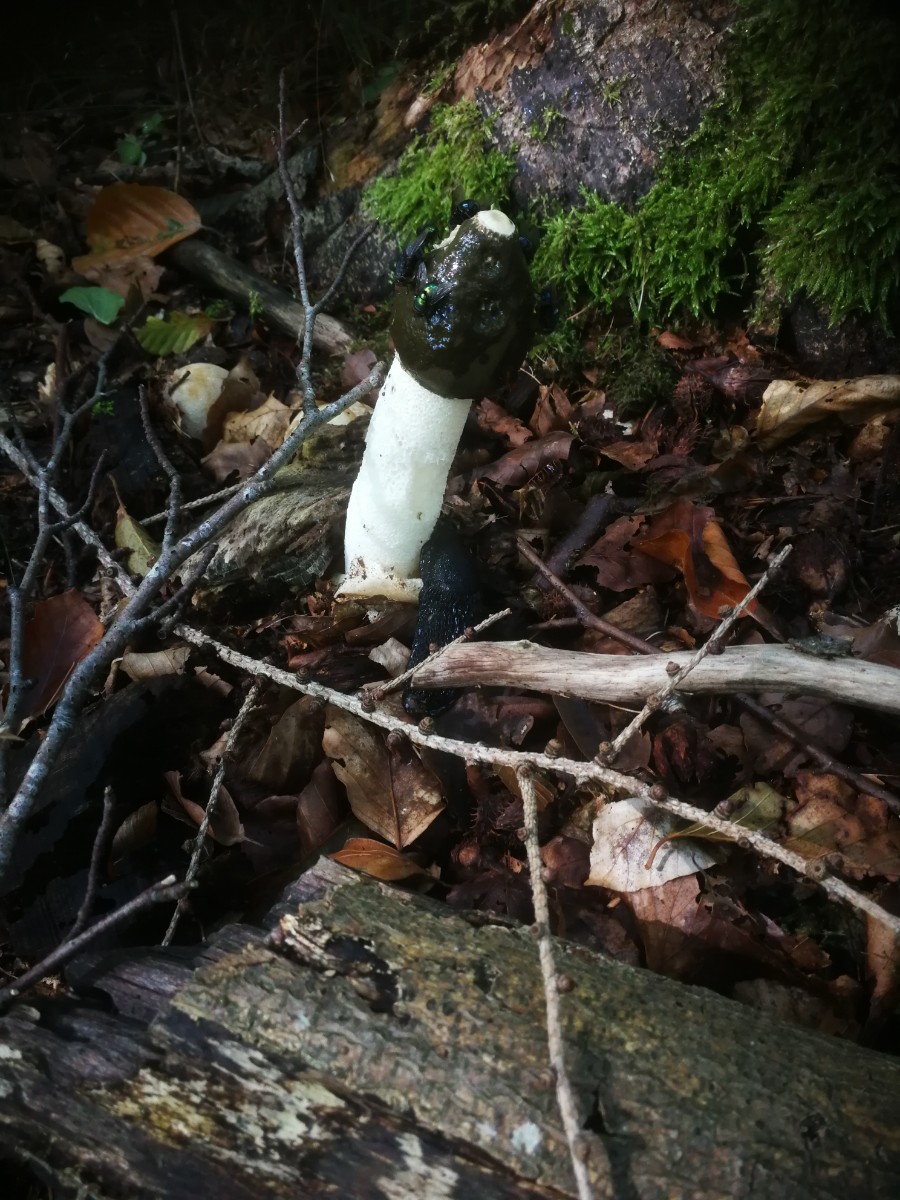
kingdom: Fungi
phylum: Basidiomycota
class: Agaricomycetes
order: Phallales
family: Phallaceae
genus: Phallus
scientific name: Phallus impudicus
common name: almindelig stinksvamp
